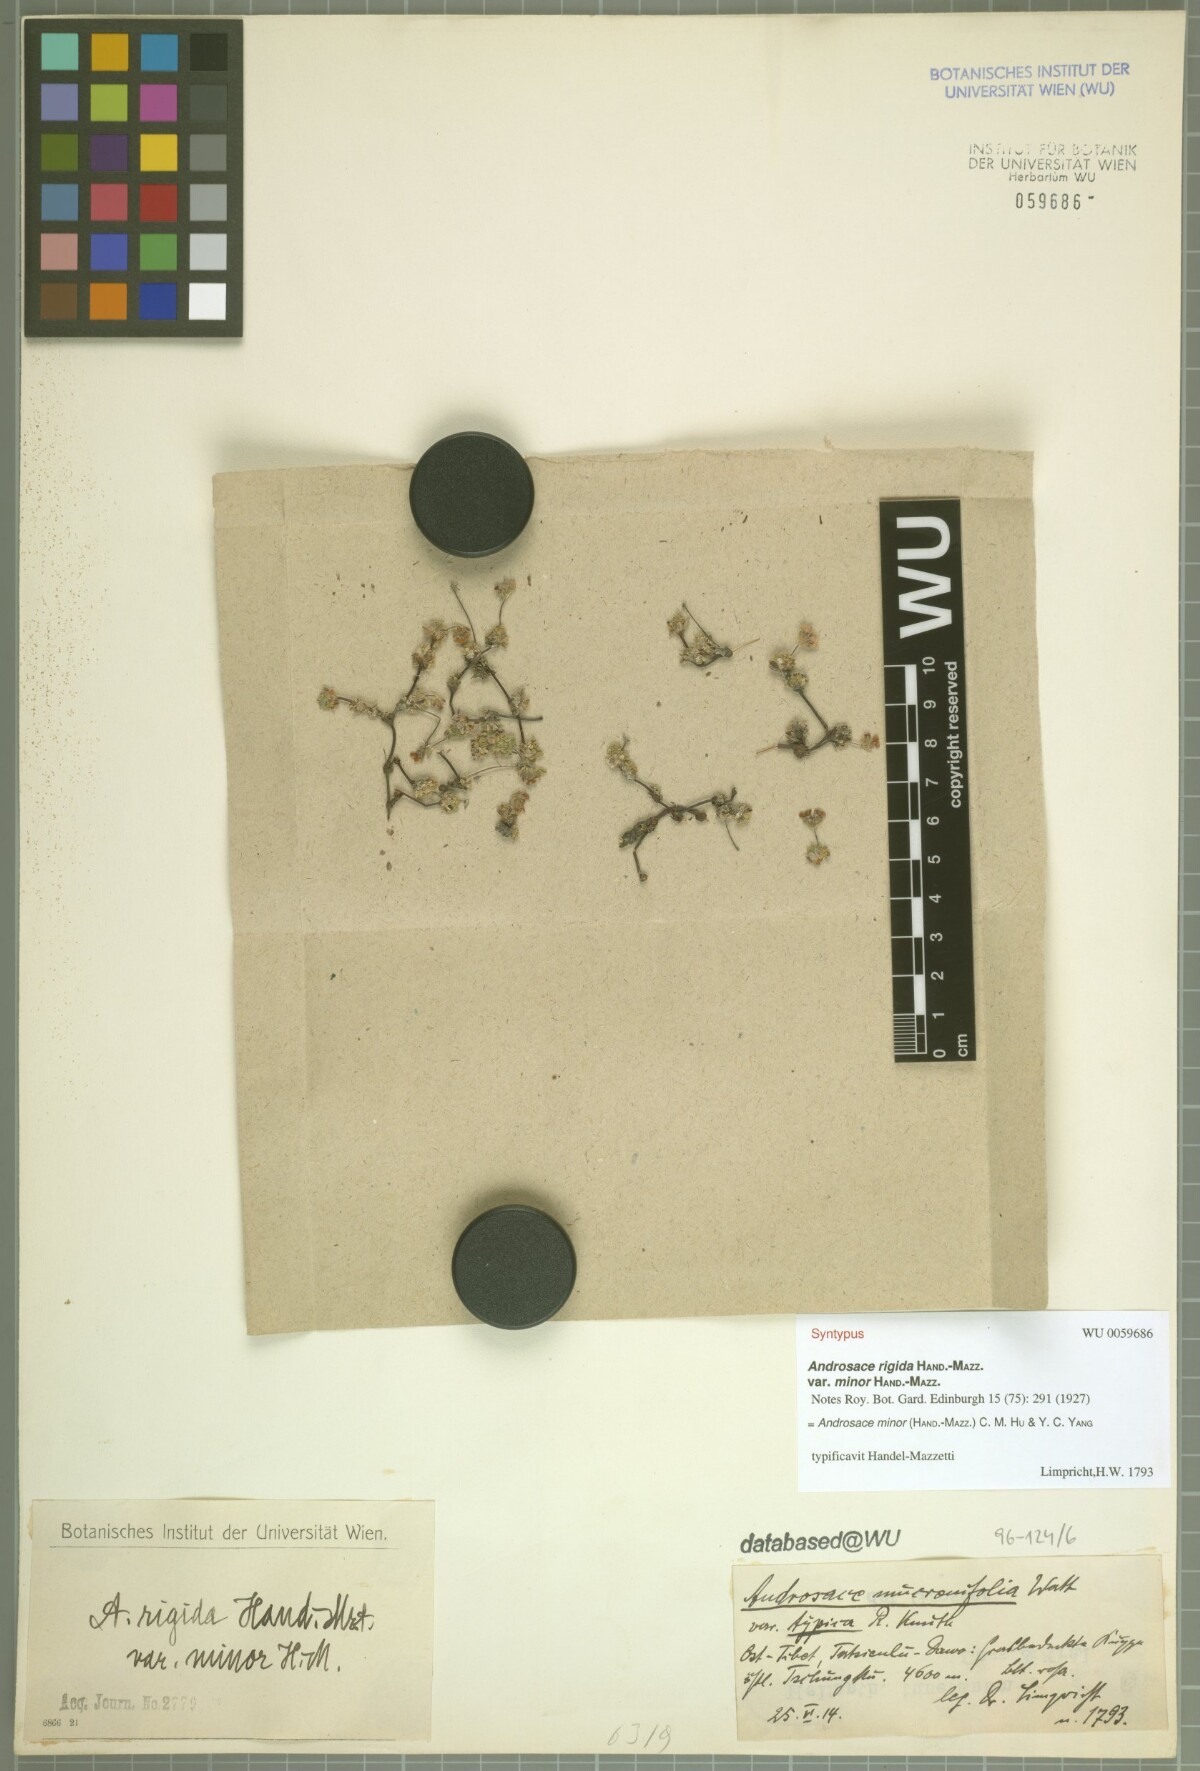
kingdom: Plantae
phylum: Tracheophyta
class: Magnoliopsida
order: Ericales
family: Primulaceae
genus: Androsace
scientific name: Androsace minor
